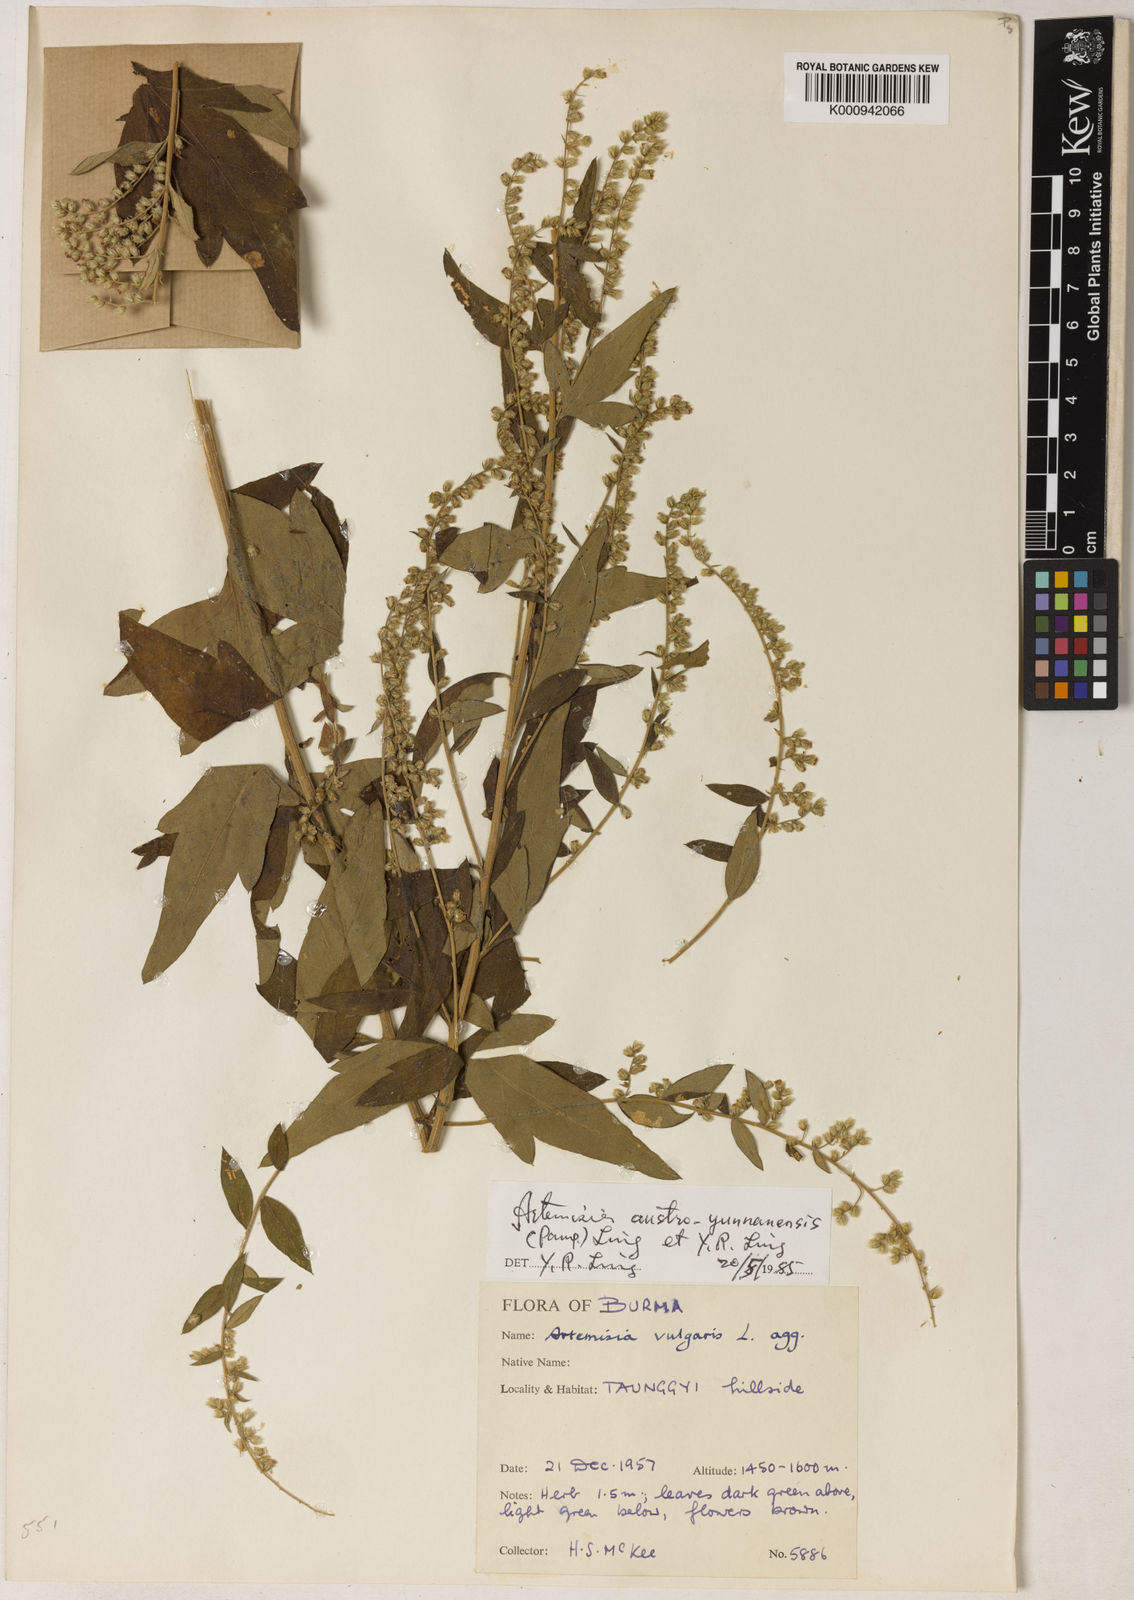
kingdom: Plantae
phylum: Tracheophyta
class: Magnoliopsida
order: Asterales
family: Asteraceae
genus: Artemisia
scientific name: Artemisia austroyunnanensis
